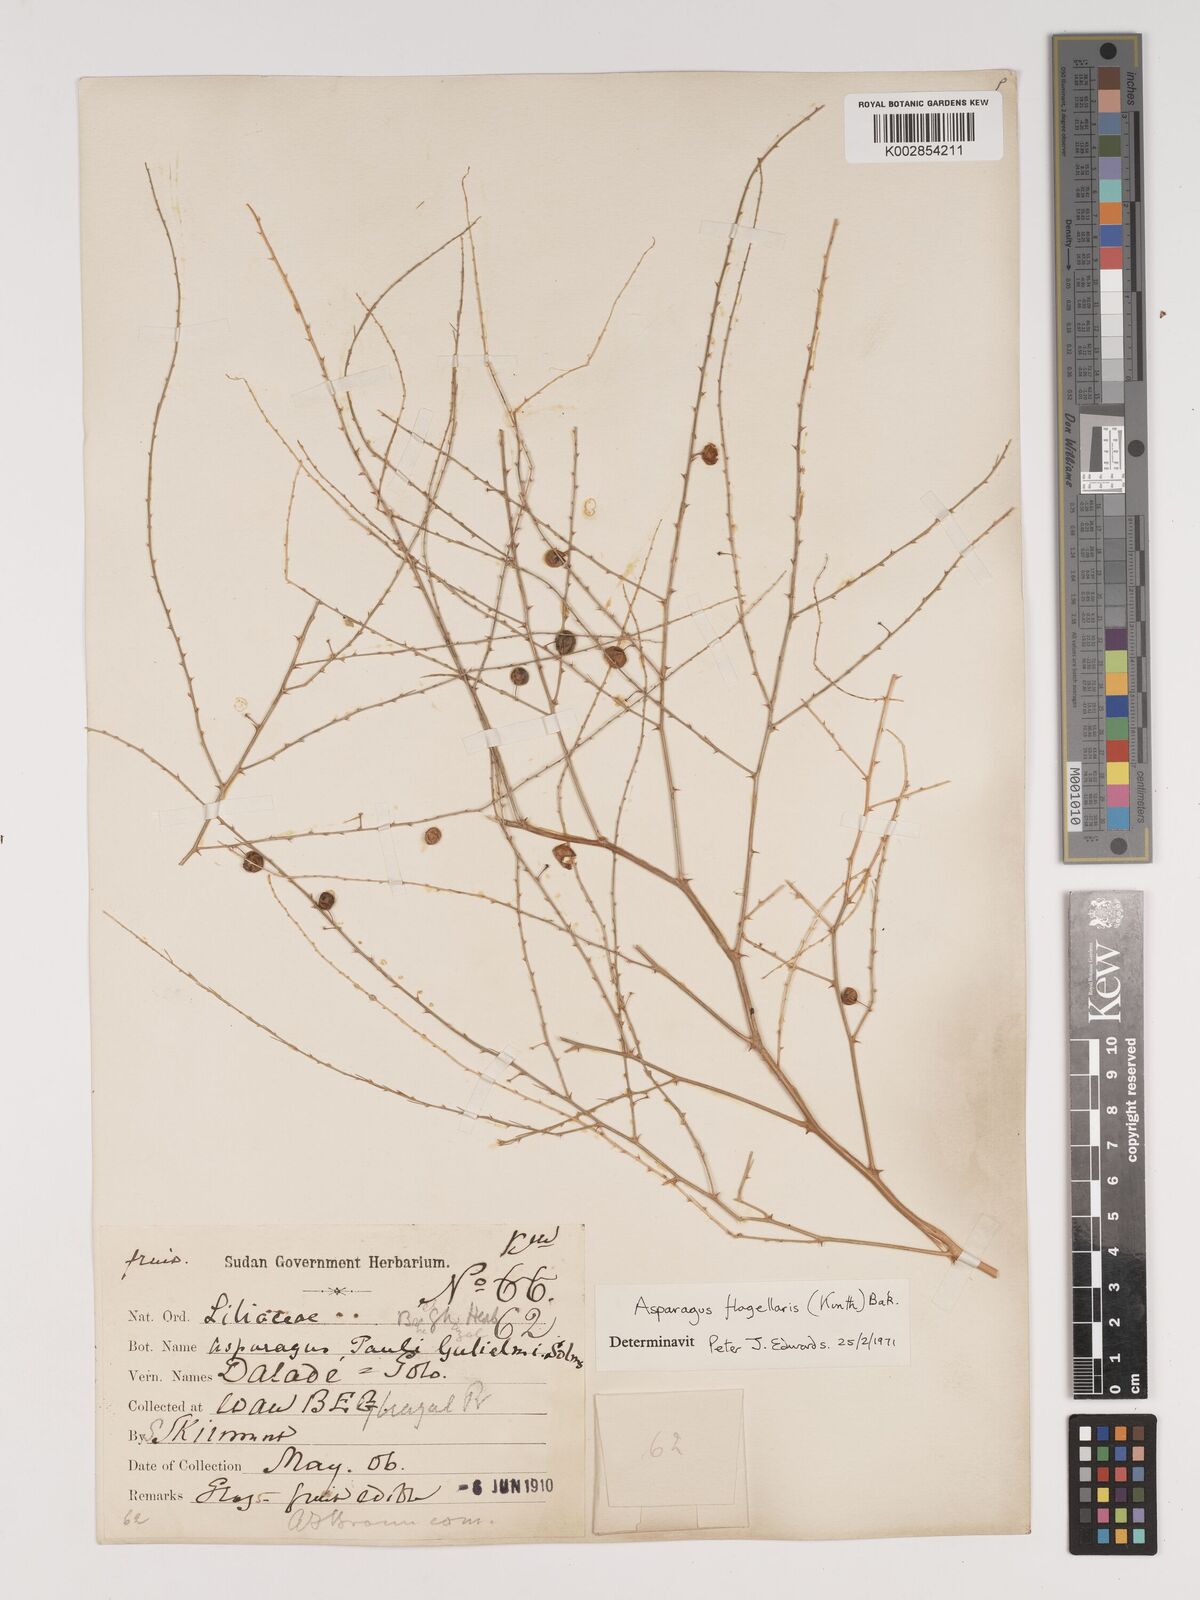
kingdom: Plantae
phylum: Tracheophyta
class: Liliopsida
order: Asparagales
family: Asparagaceae
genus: Asparagus
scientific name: Asparagus flagellaris
